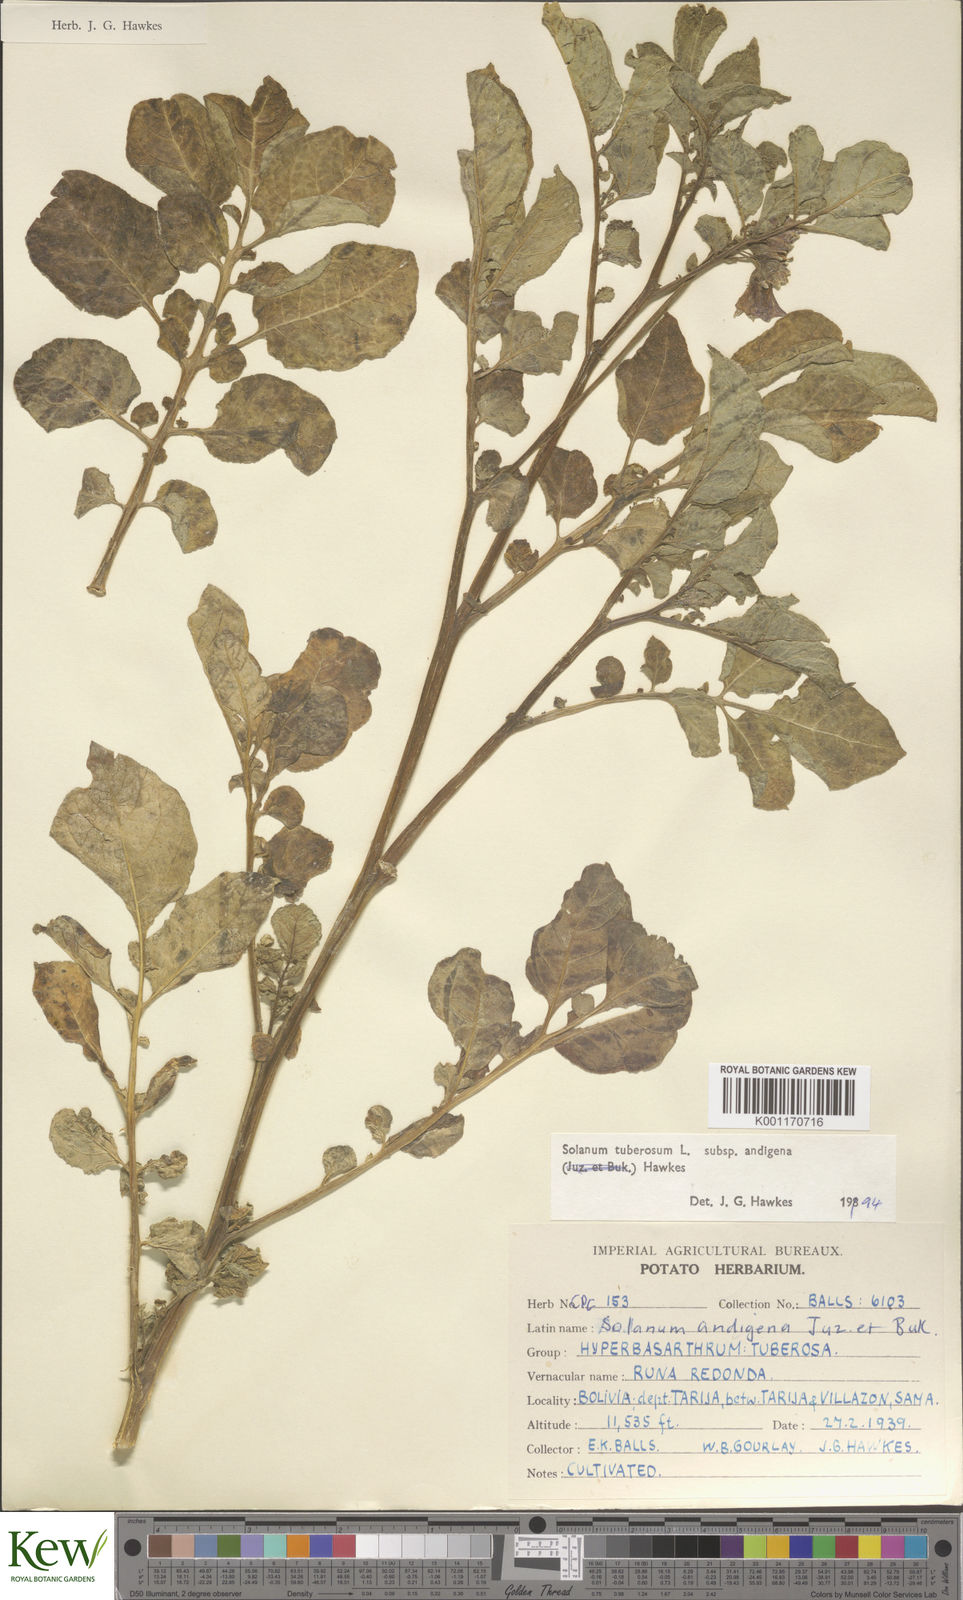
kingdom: Plantae
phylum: Tracheophyta
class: Magnoliopsida
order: Solanales
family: Solanaceae
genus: Solanum
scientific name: Solanum tuberosum
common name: Potato
